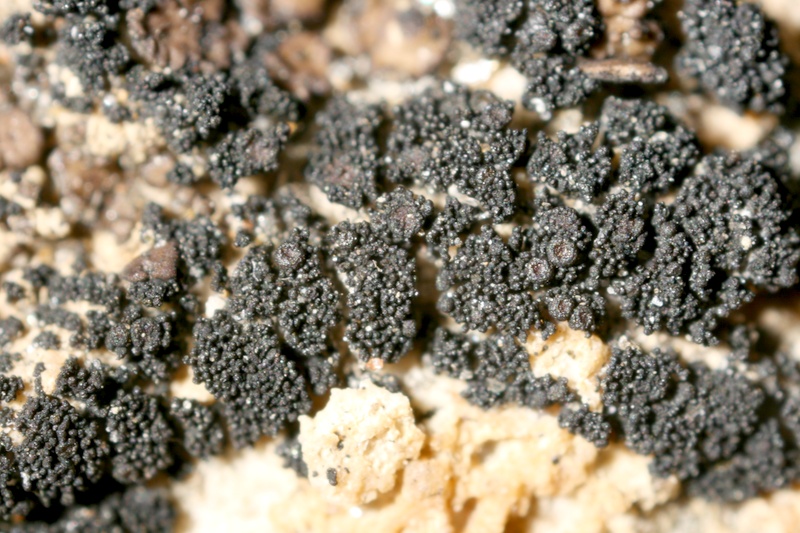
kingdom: Fungi
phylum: Ascomycota
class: Lichinomycetes
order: Lichinales
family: Lichinaceae
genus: Psorotichia
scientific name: Psorotichia hassei
